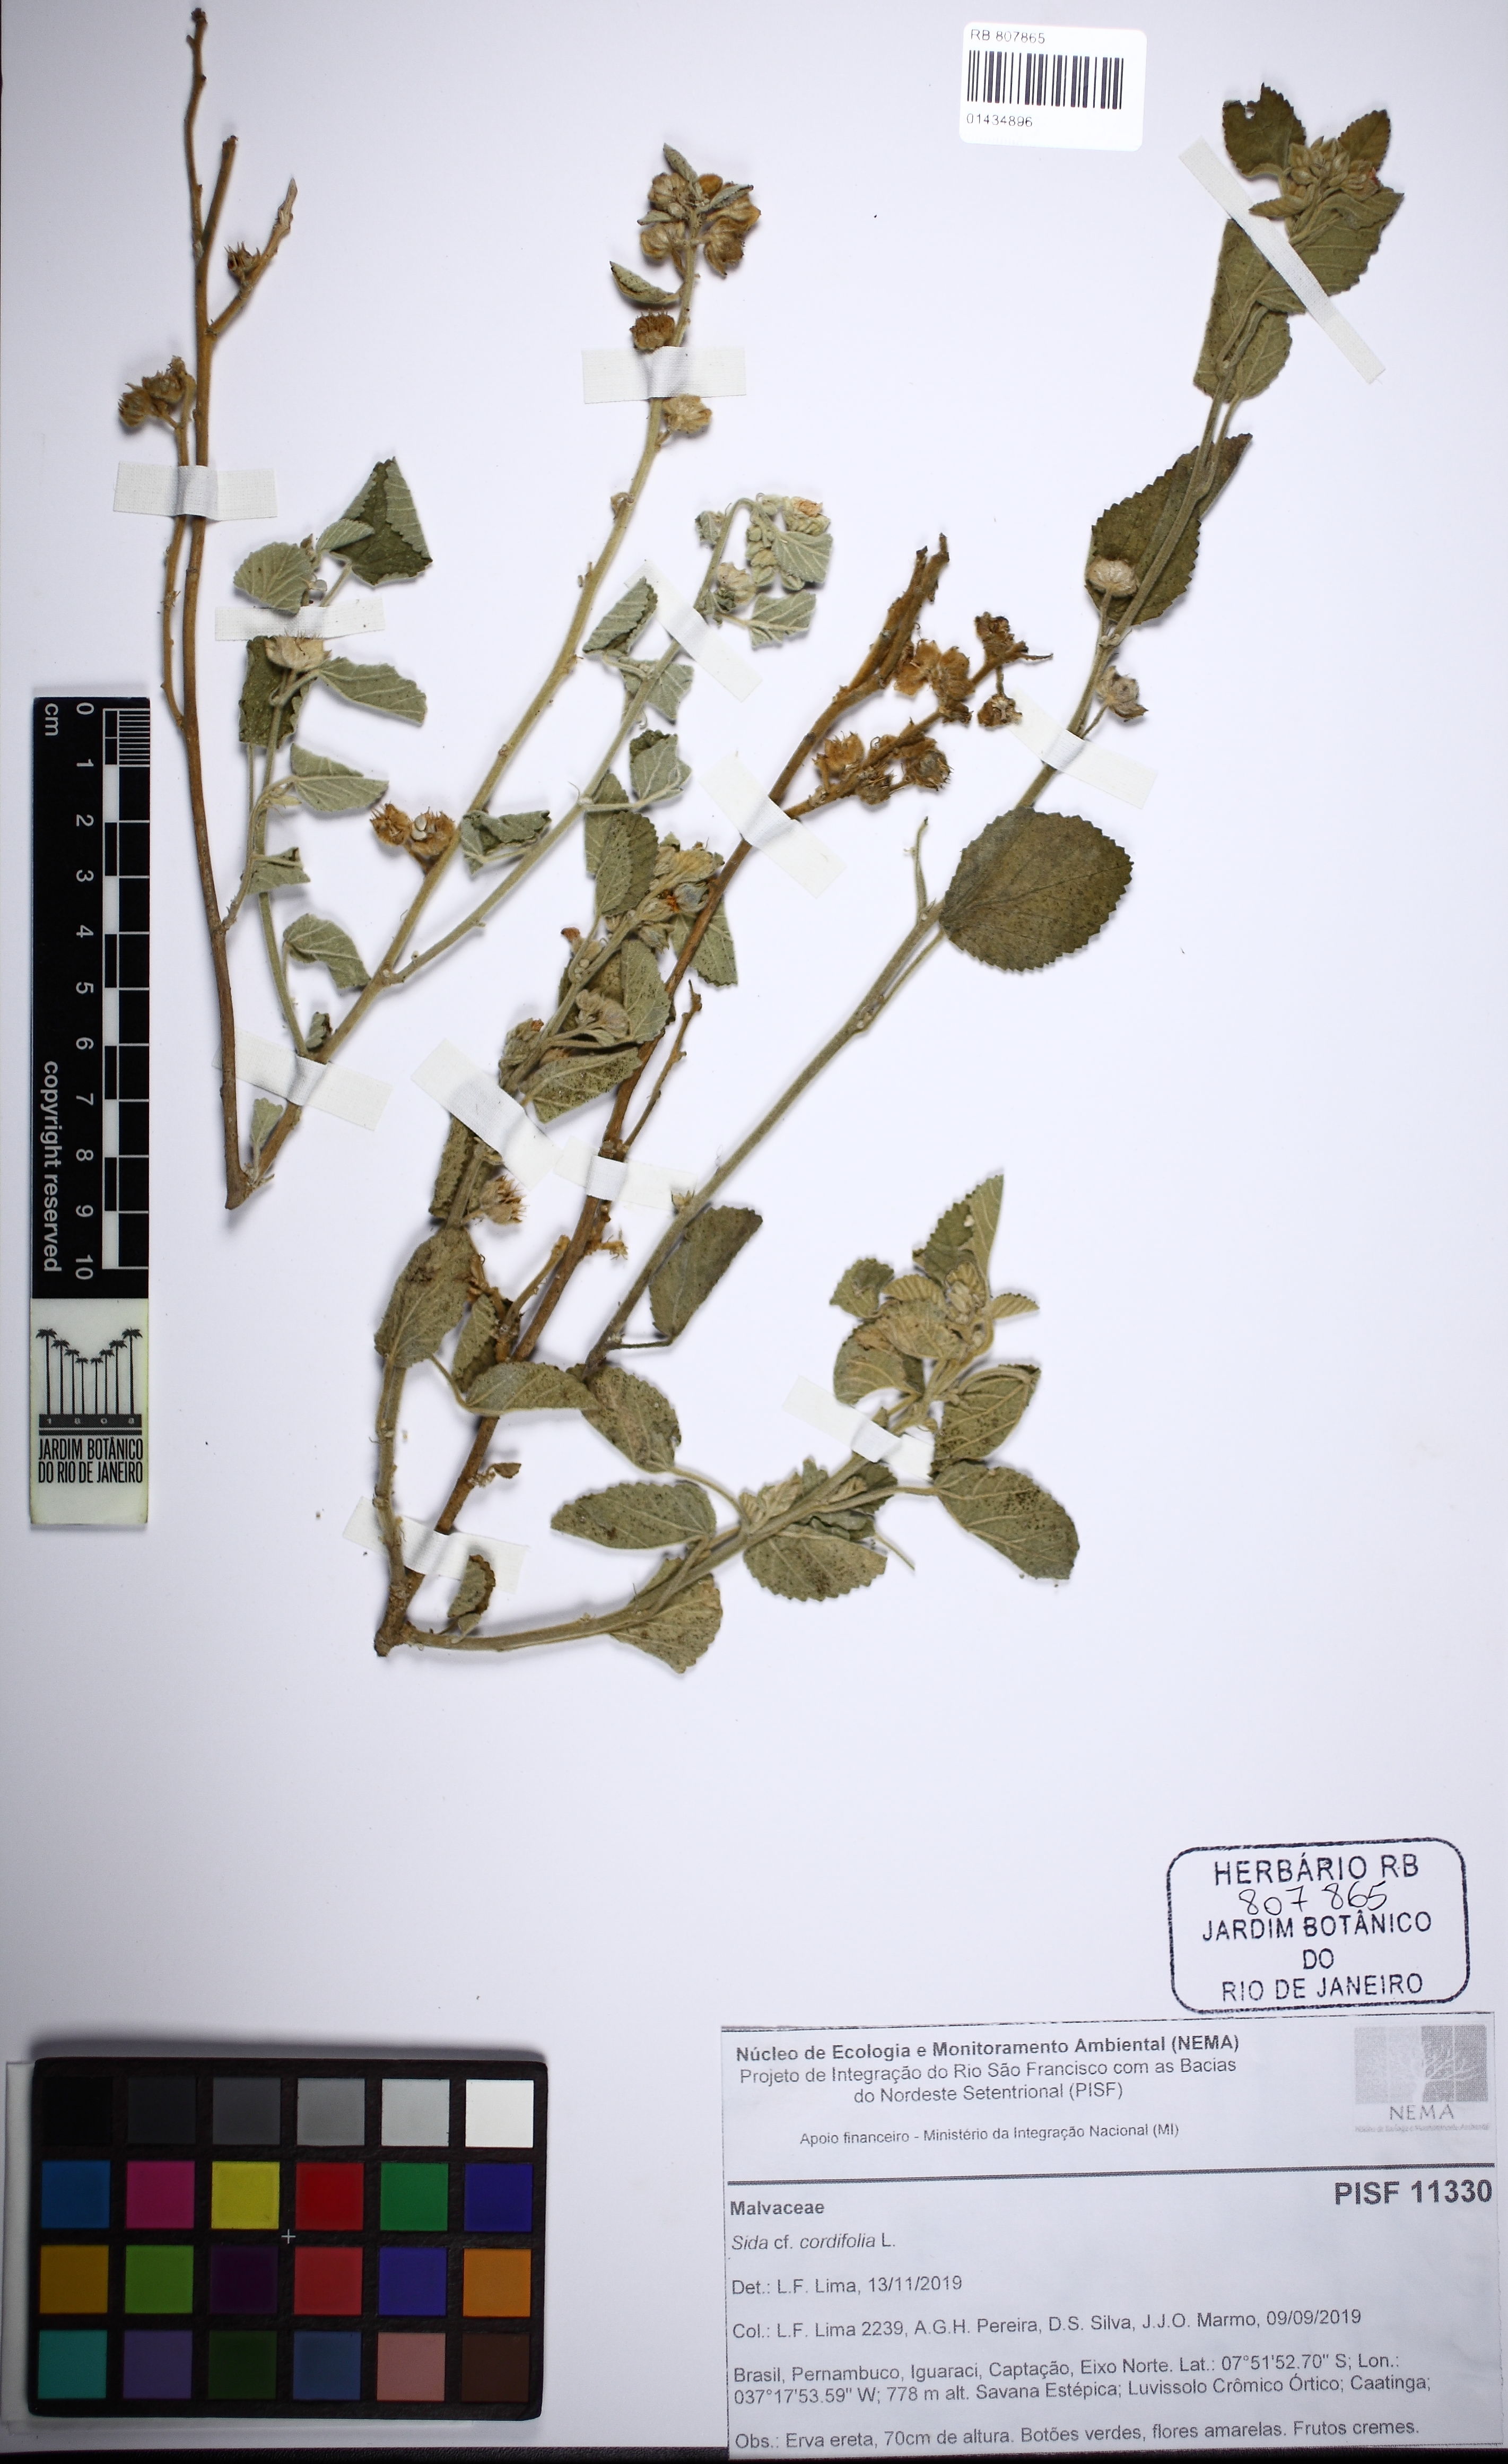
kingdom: Plantae
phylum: Tracheophyta
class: Magnoliopsida
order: Malvales
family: Malvaceae
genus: Sida
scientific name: Sida cordifolia
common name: Ilima
